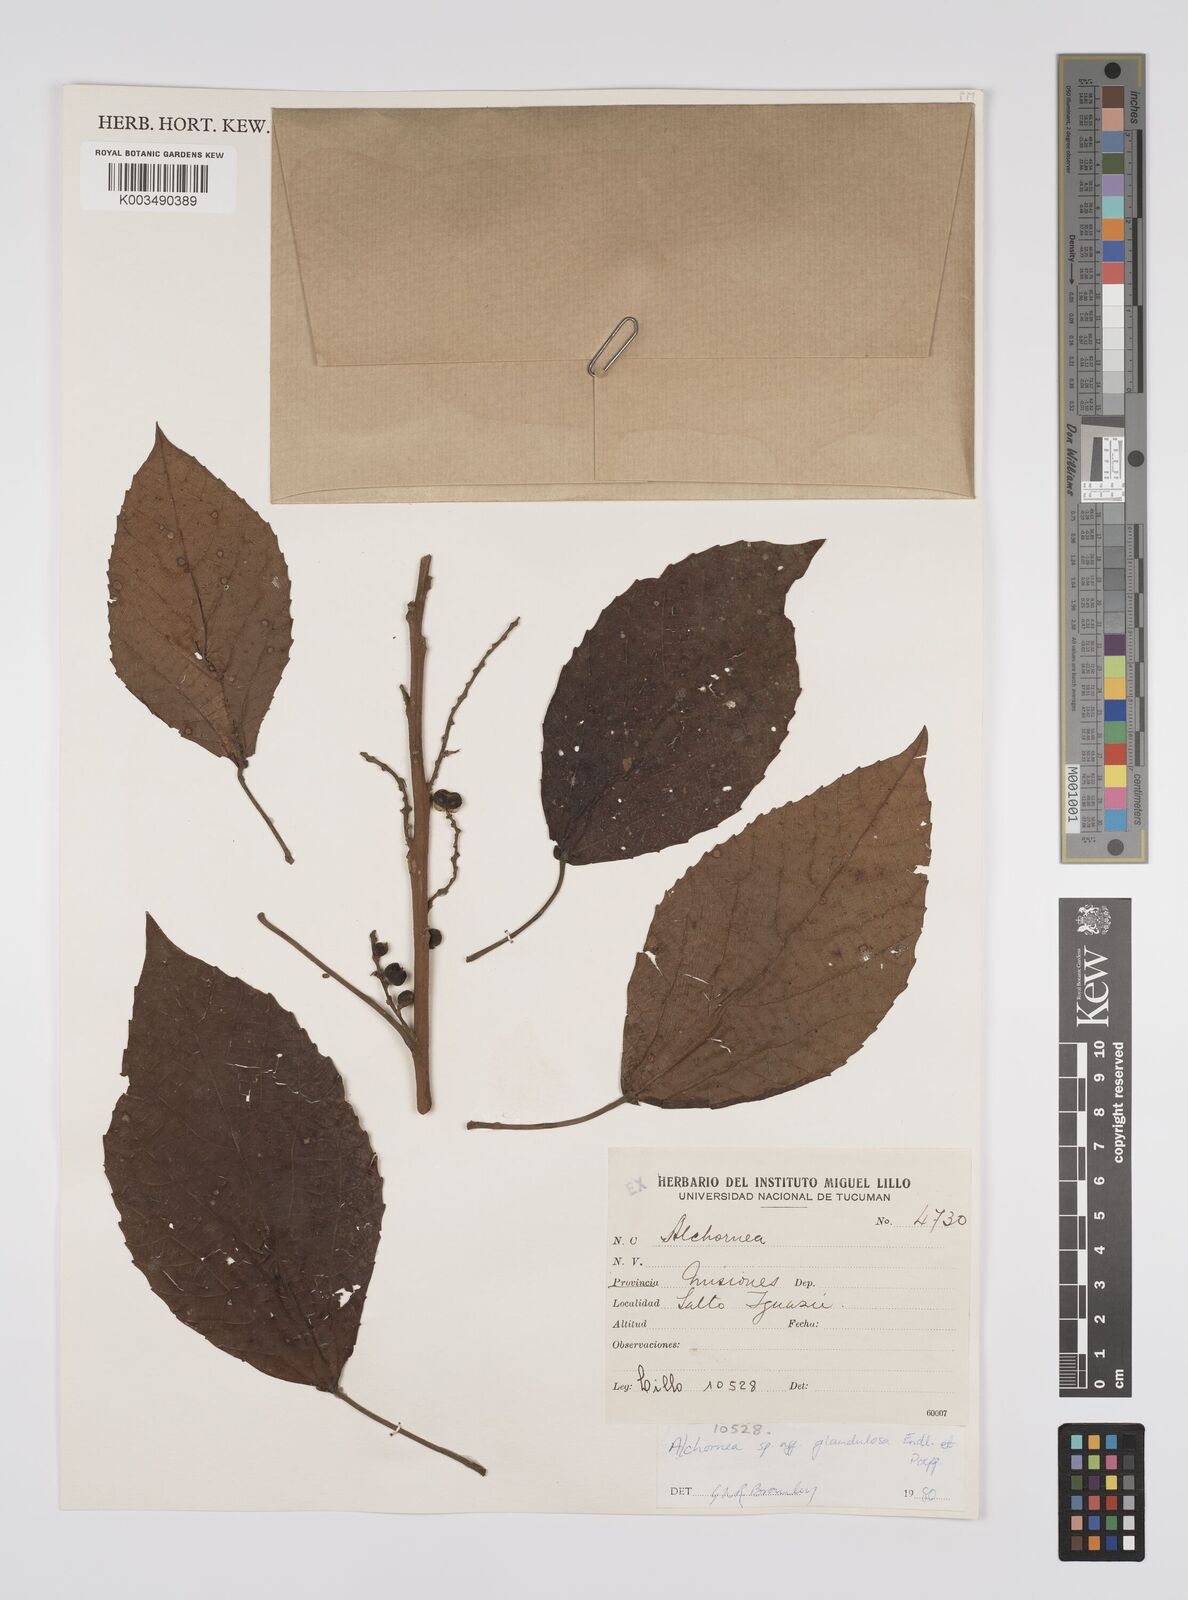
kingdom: Plantae
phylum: Tracheophyta
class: Magnoliopsida
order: Malpighiales
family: Euphorbiaceae
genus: Alchornea
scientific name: Alchornea glandulosa
